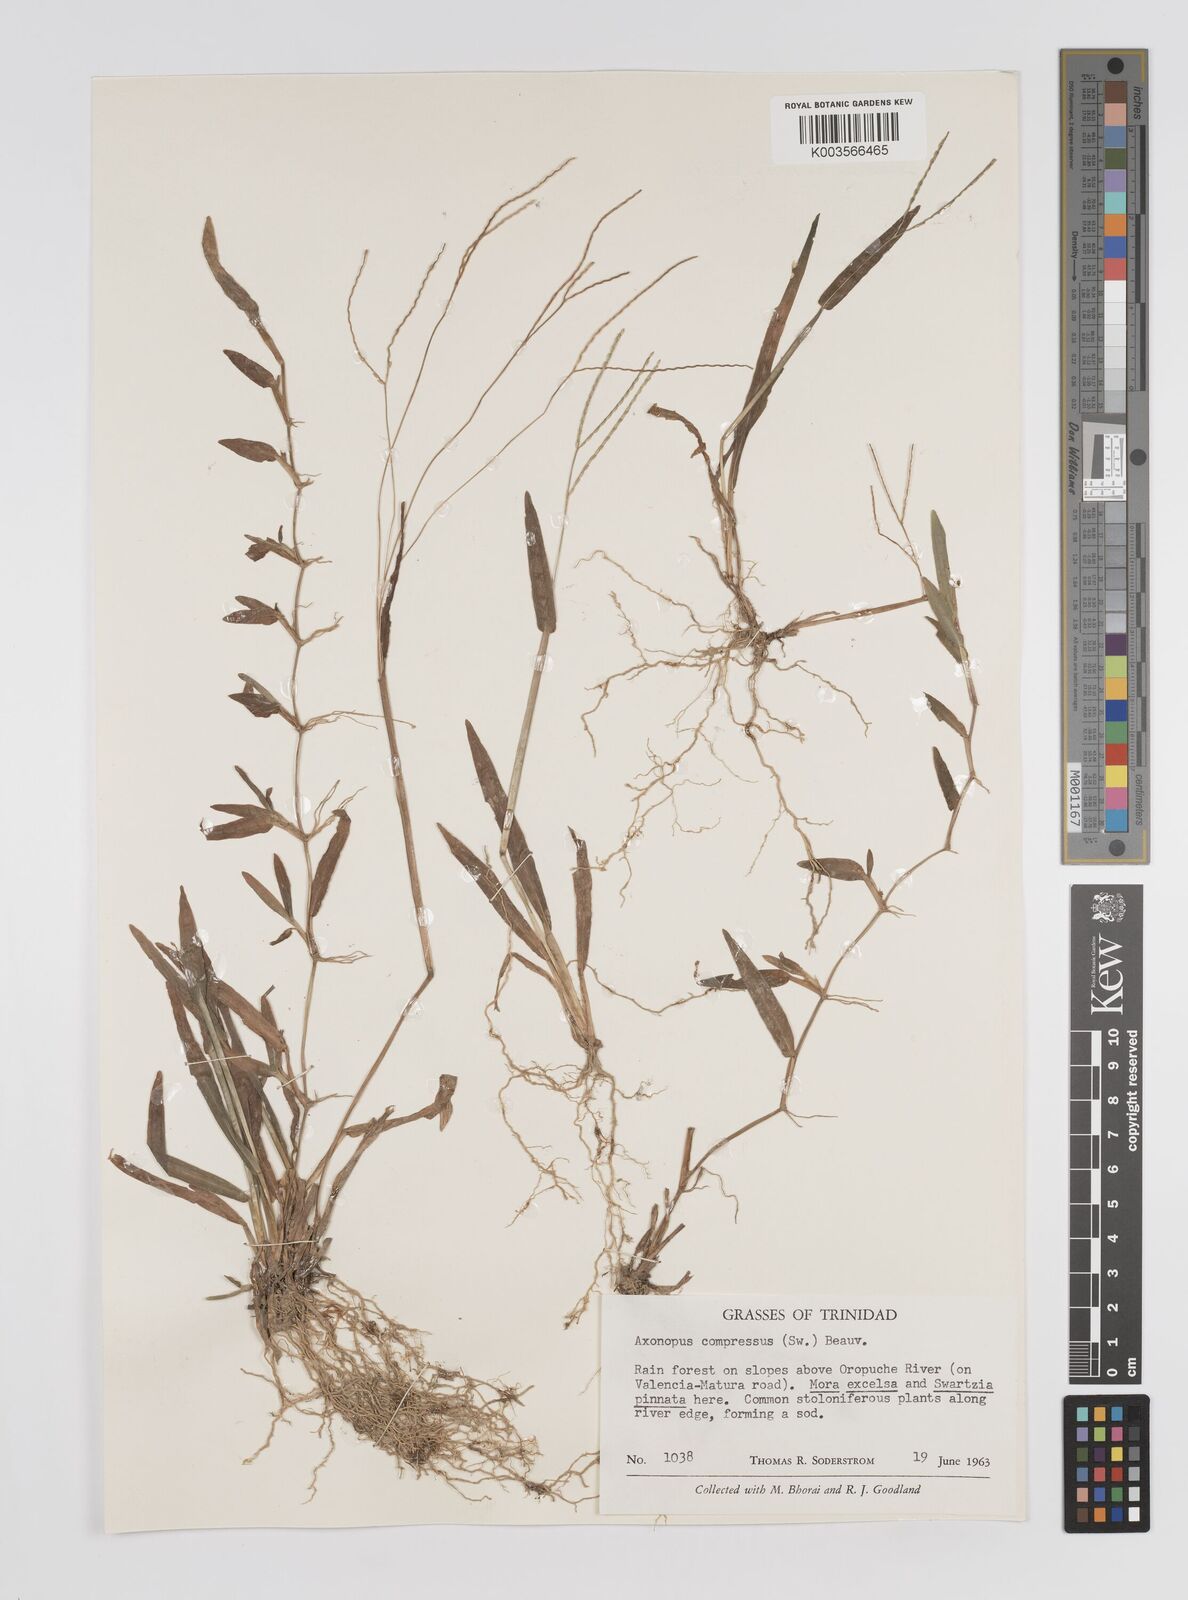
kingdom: Plantae
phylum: Tracheophyta
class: Liliopsida
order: Poales
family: Poaceae
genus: Axonopus
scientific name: Axonopus compressus
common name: American carpet grass
